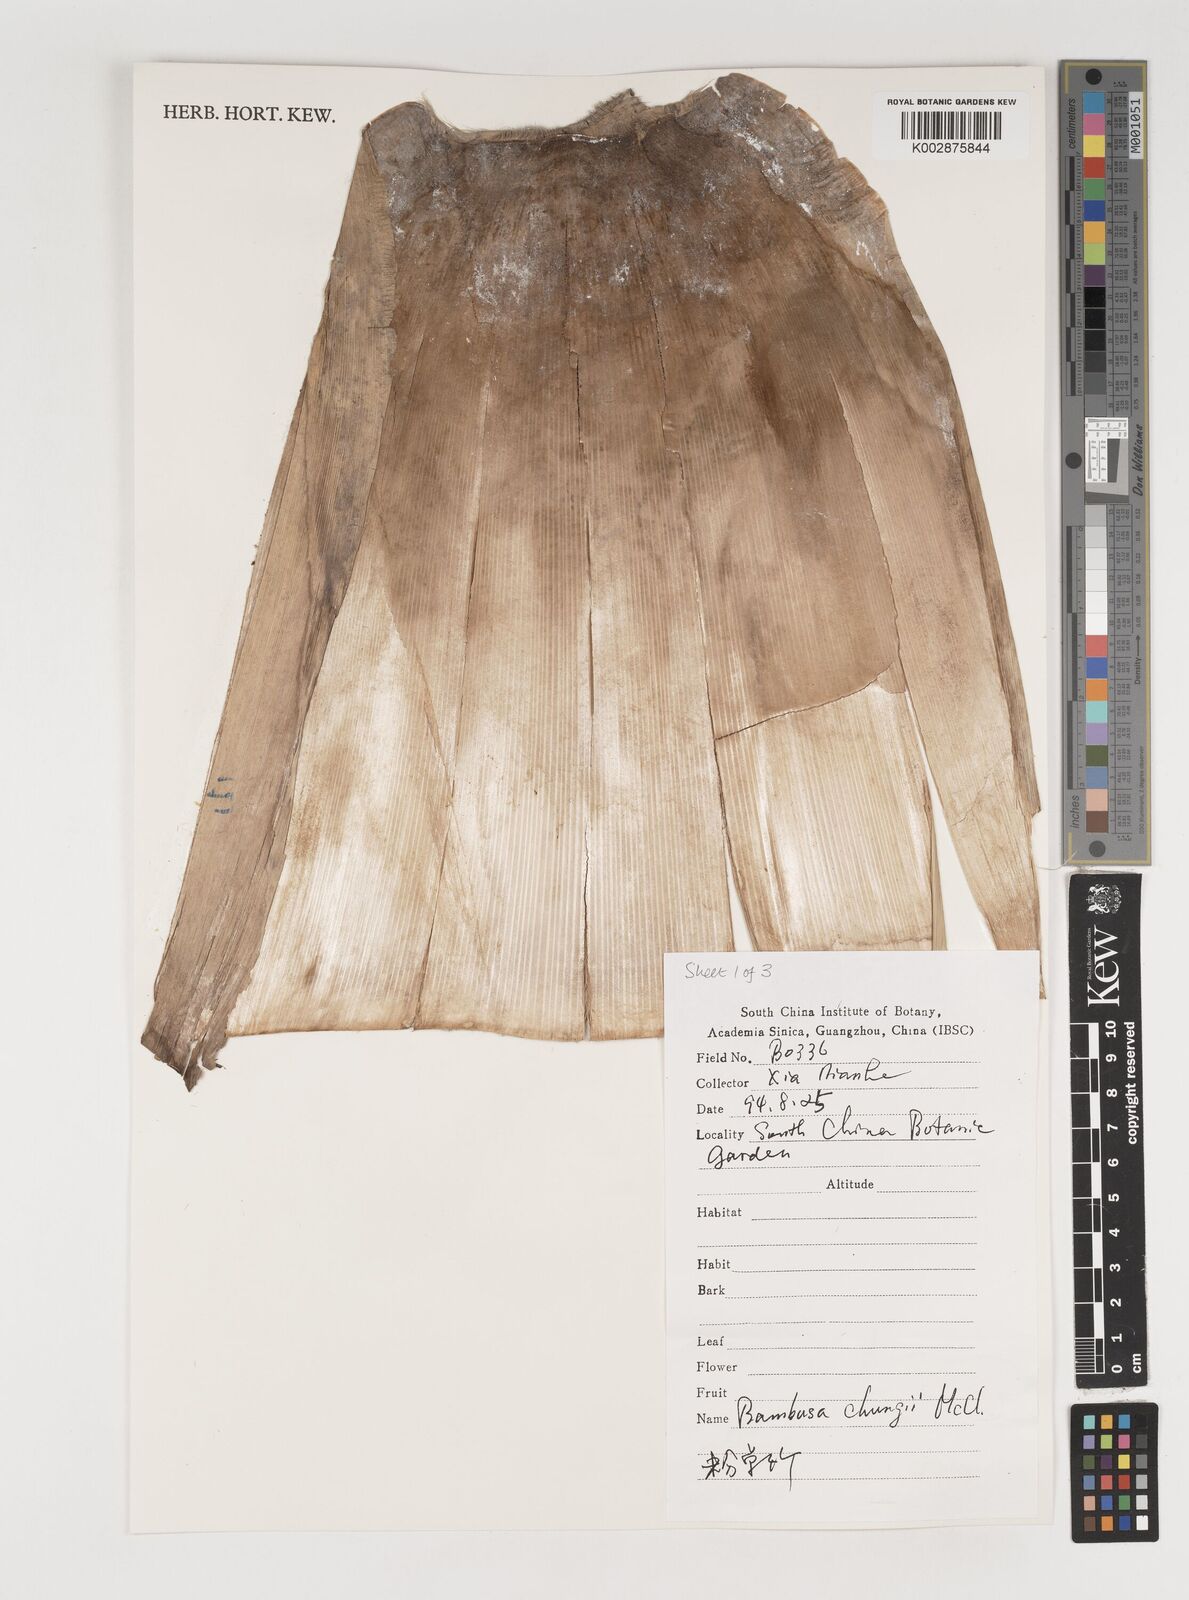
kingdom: Plantae
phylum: Tracheophyta
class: Liliopsida
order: Poales
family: Poaceae
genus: Bambusa
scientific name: Bambusa chungii
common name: White-powder bamboo
